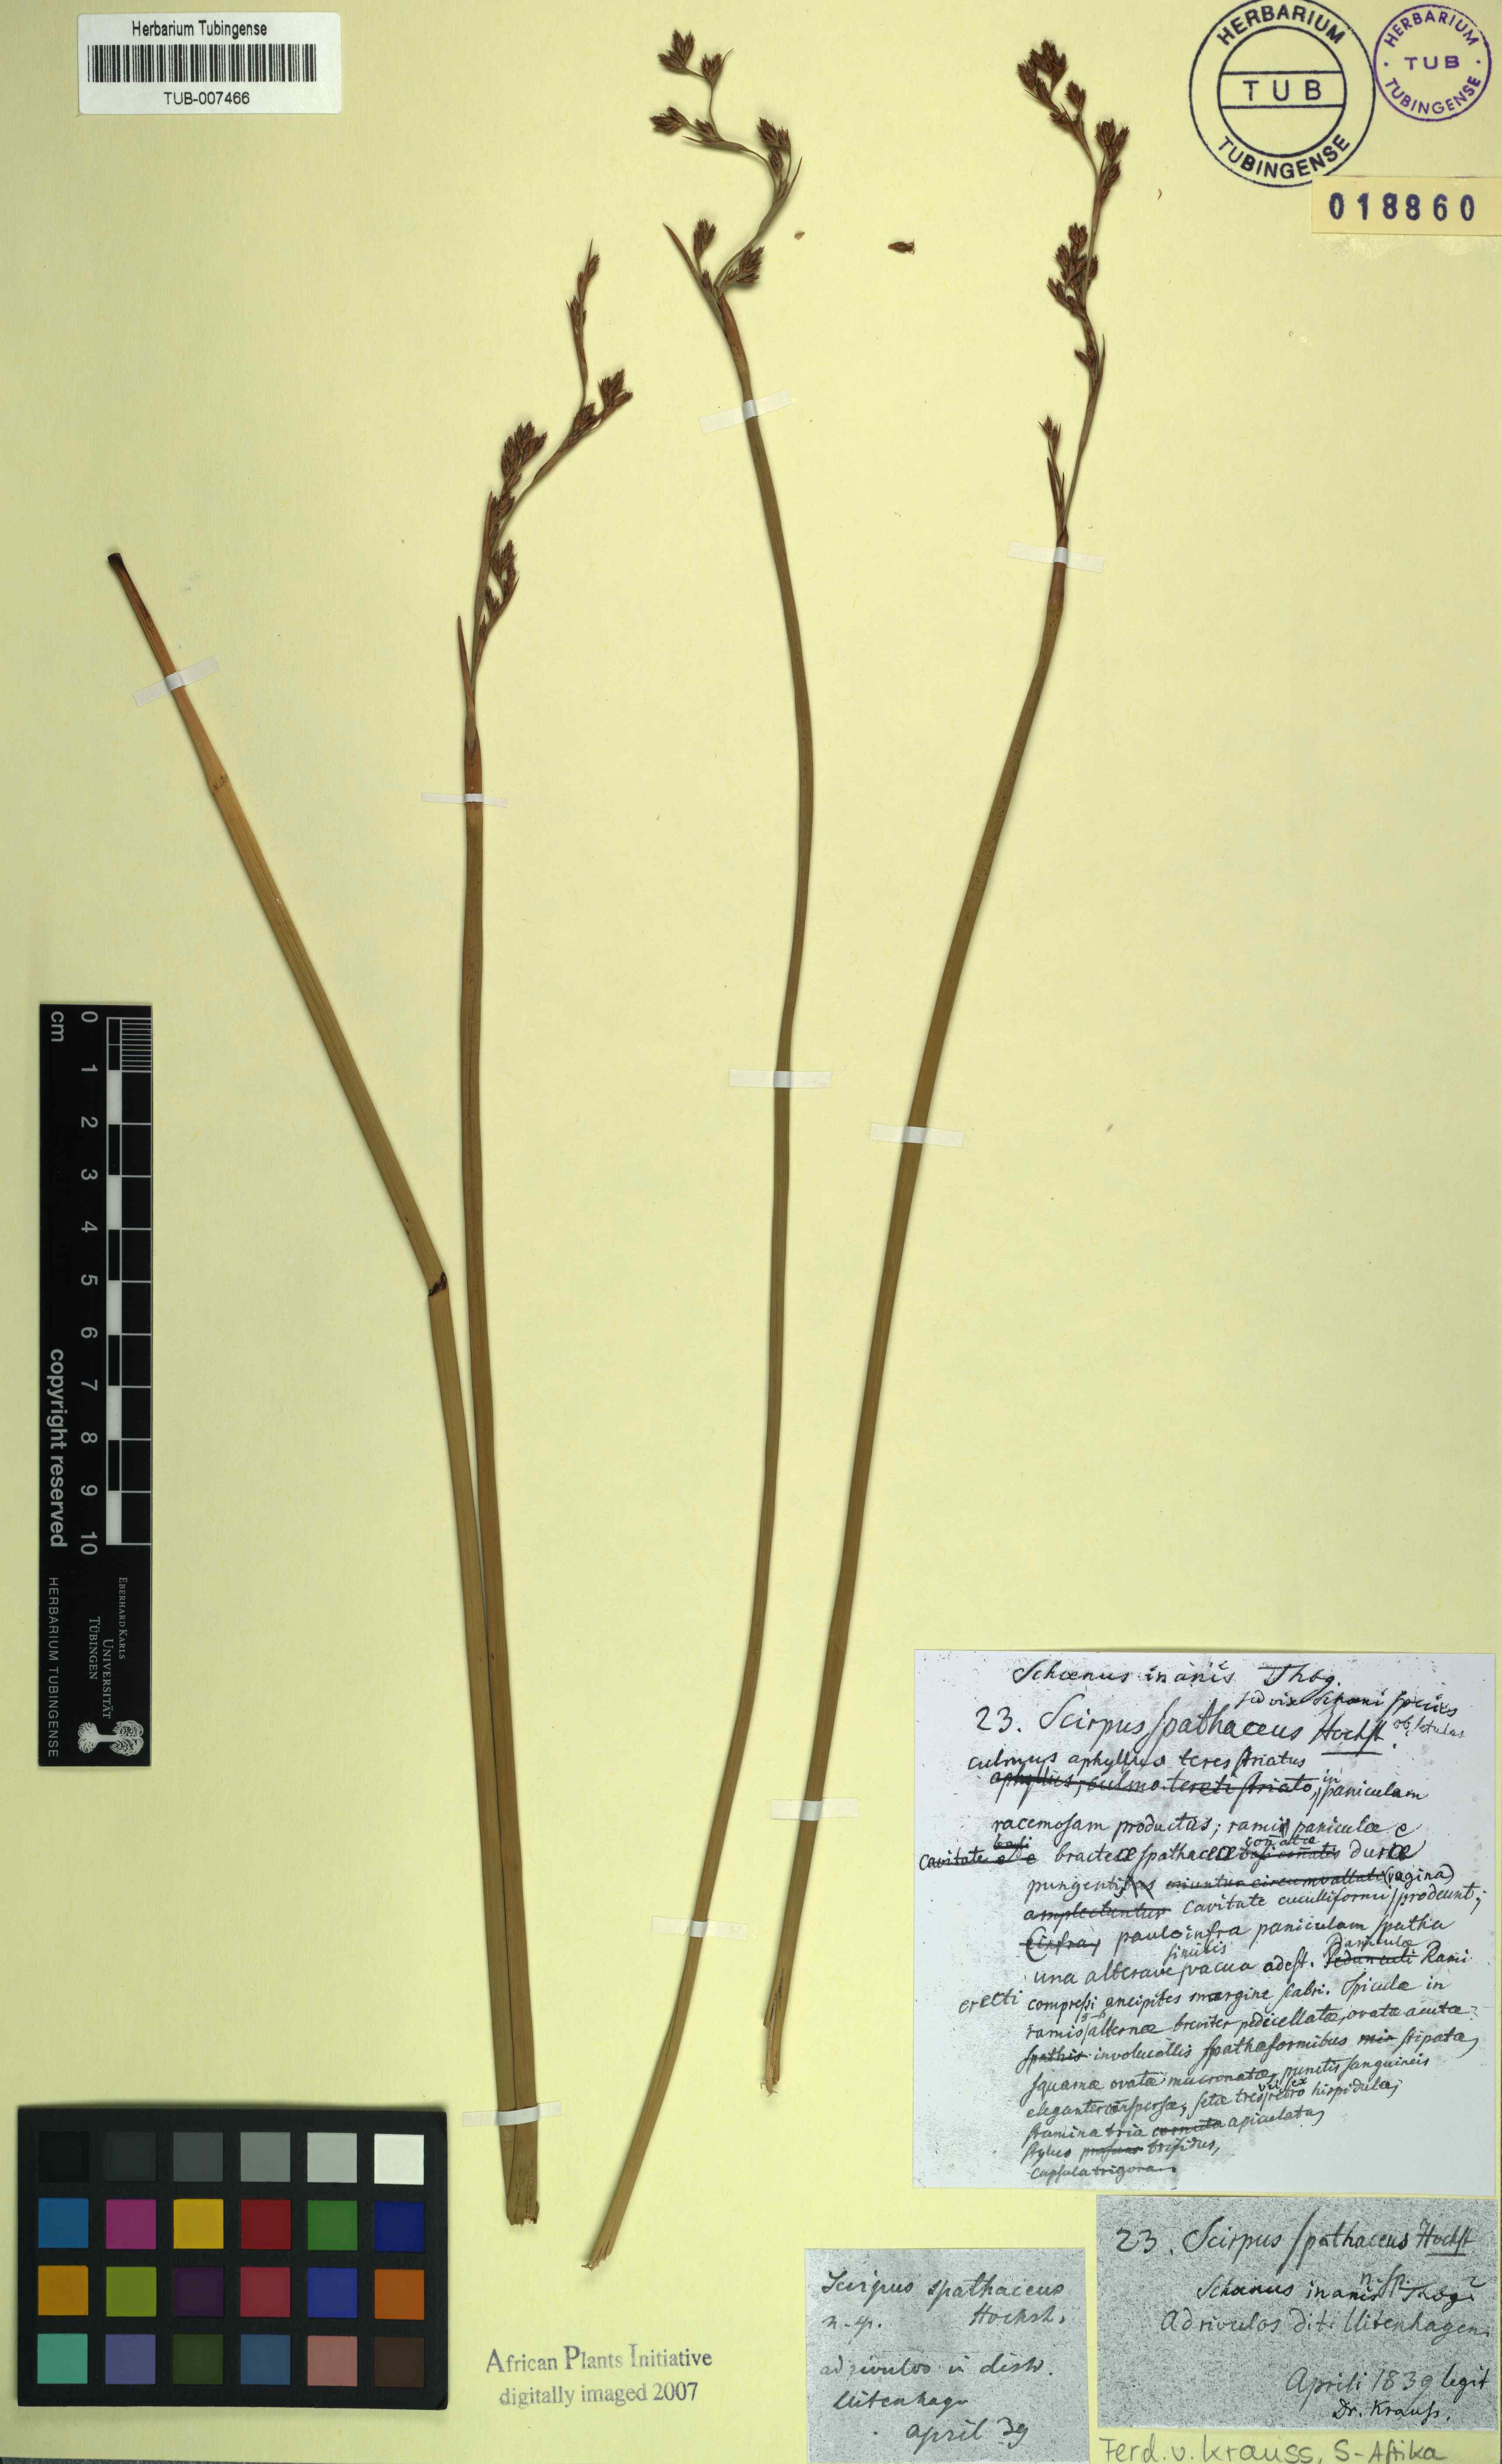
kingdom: Plantae
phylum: Tracheophyta
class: Liliopsida
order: Poales
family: Cyperaceae
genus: Pseudoschoenus
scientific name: Pseudoschoenus inanis
